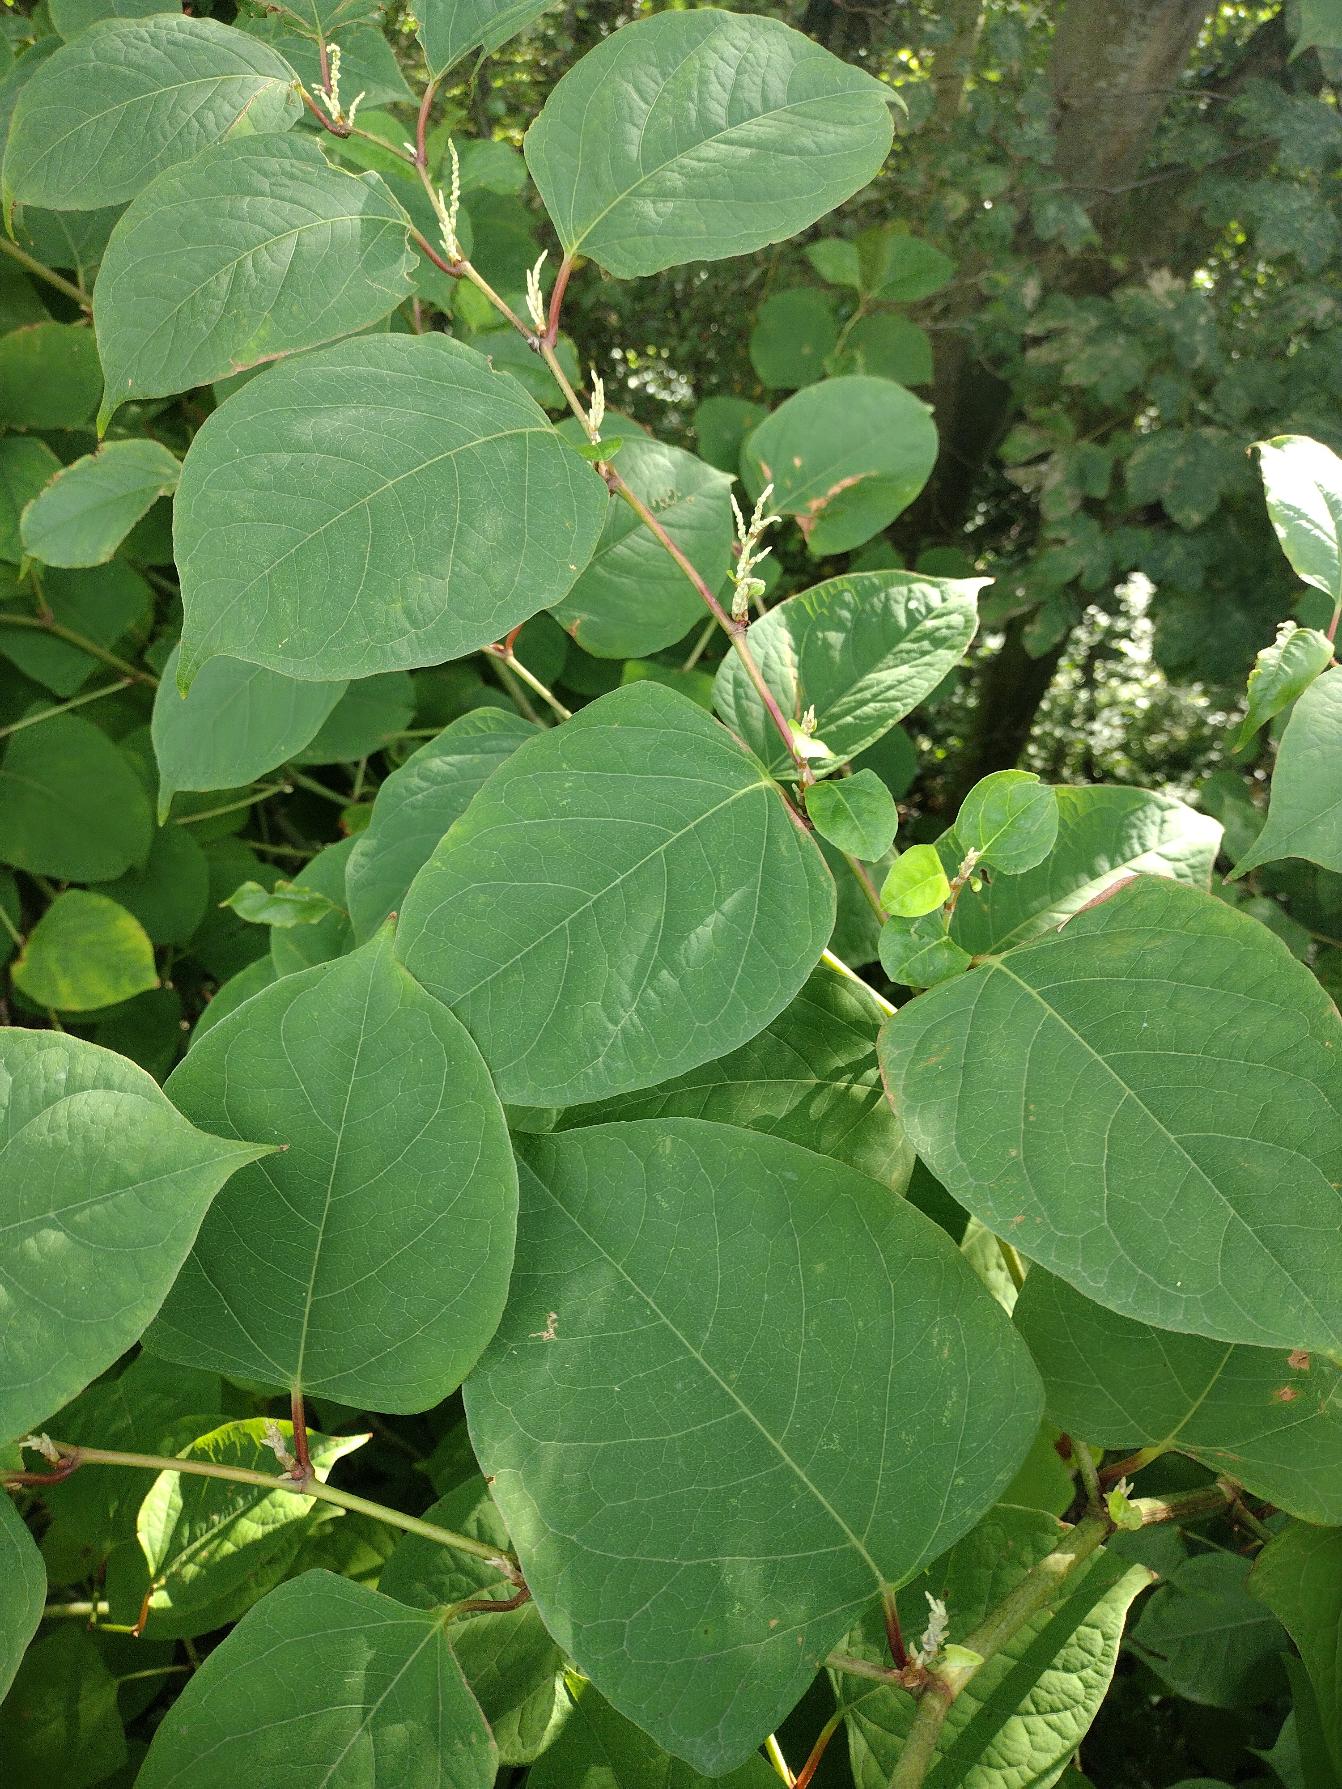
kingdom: Plantae
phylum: Tracheophyta
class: Magnoliopsida
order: Caryophyllales
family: Polygonaceae
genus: Reynoutria
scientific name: Reynoutria japonica
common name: Japan-pileurt
